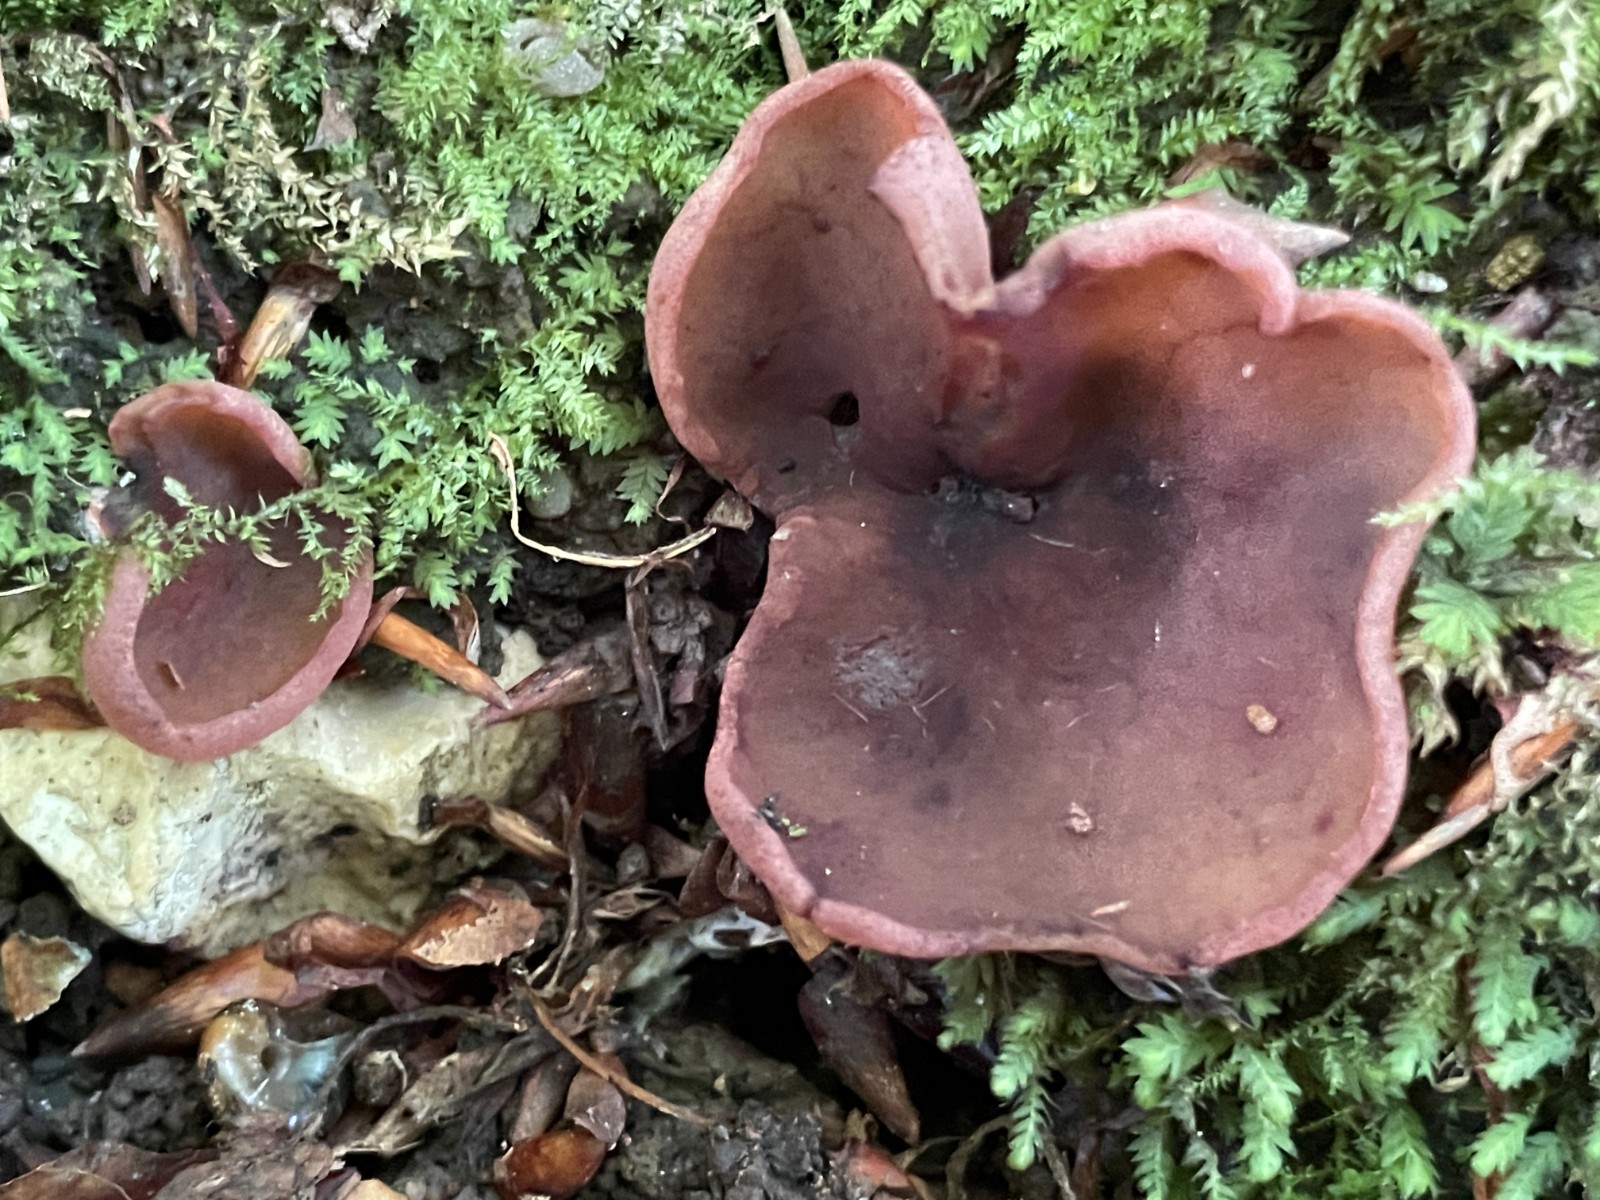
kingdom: Fungi
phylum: Ascomycota
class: Pezizomycetes
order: Pezizales
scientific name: Pezizales
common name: bægersvampordenen
